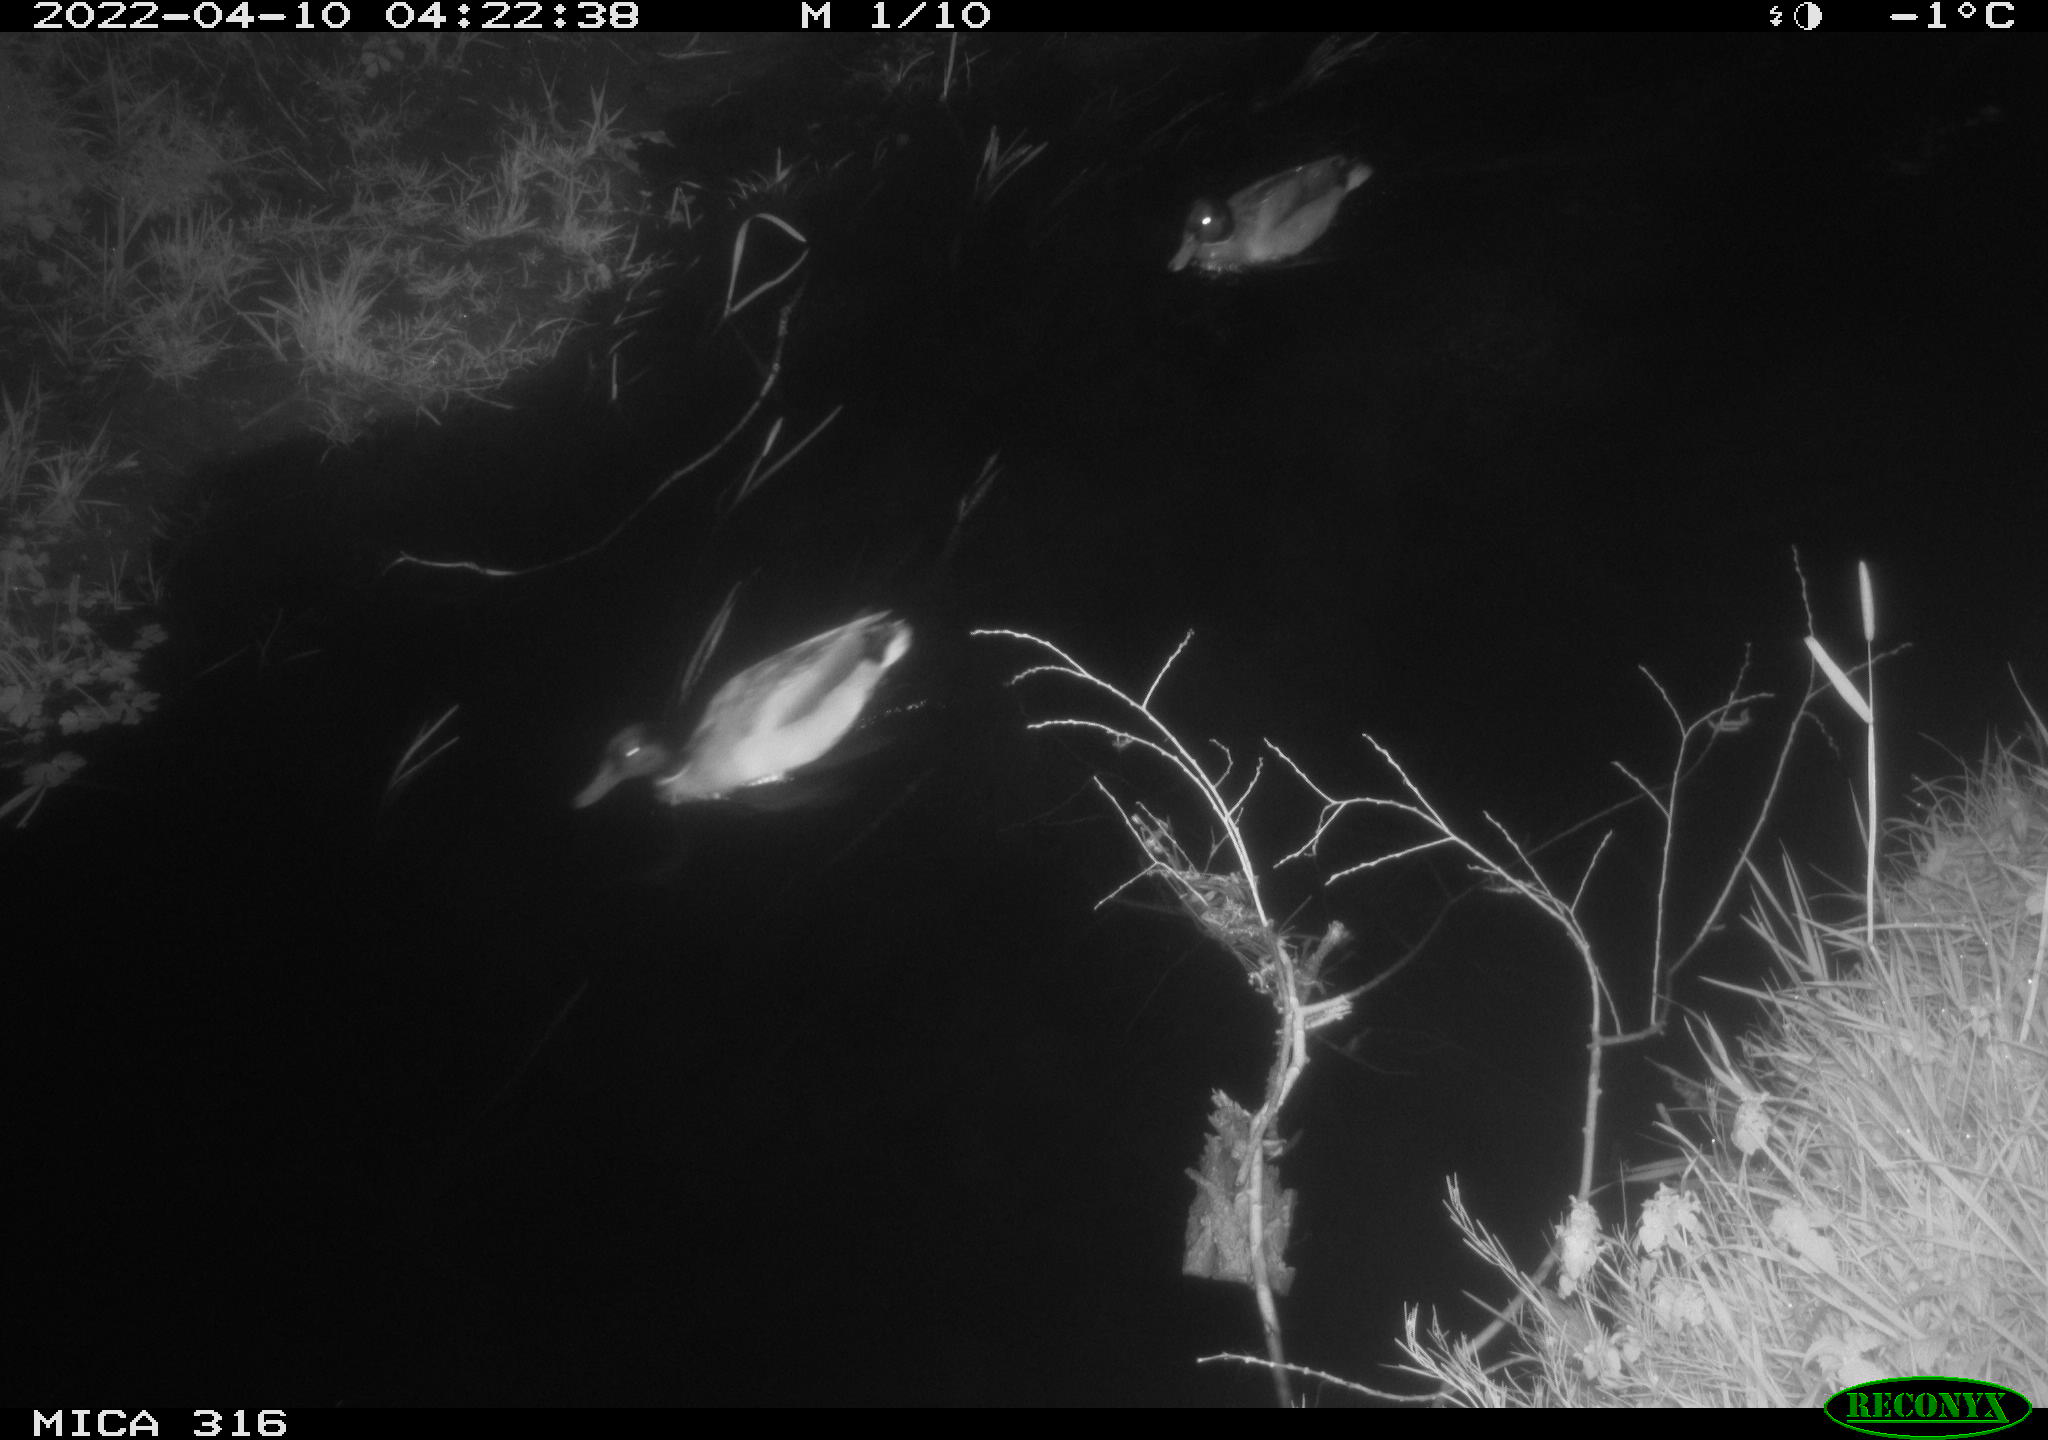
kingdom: Animalia
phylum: Chordata
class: Aves
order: Anseriformes
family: Anatidae
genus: Anas
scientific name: Anas platyrhynchos
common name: Mallard
